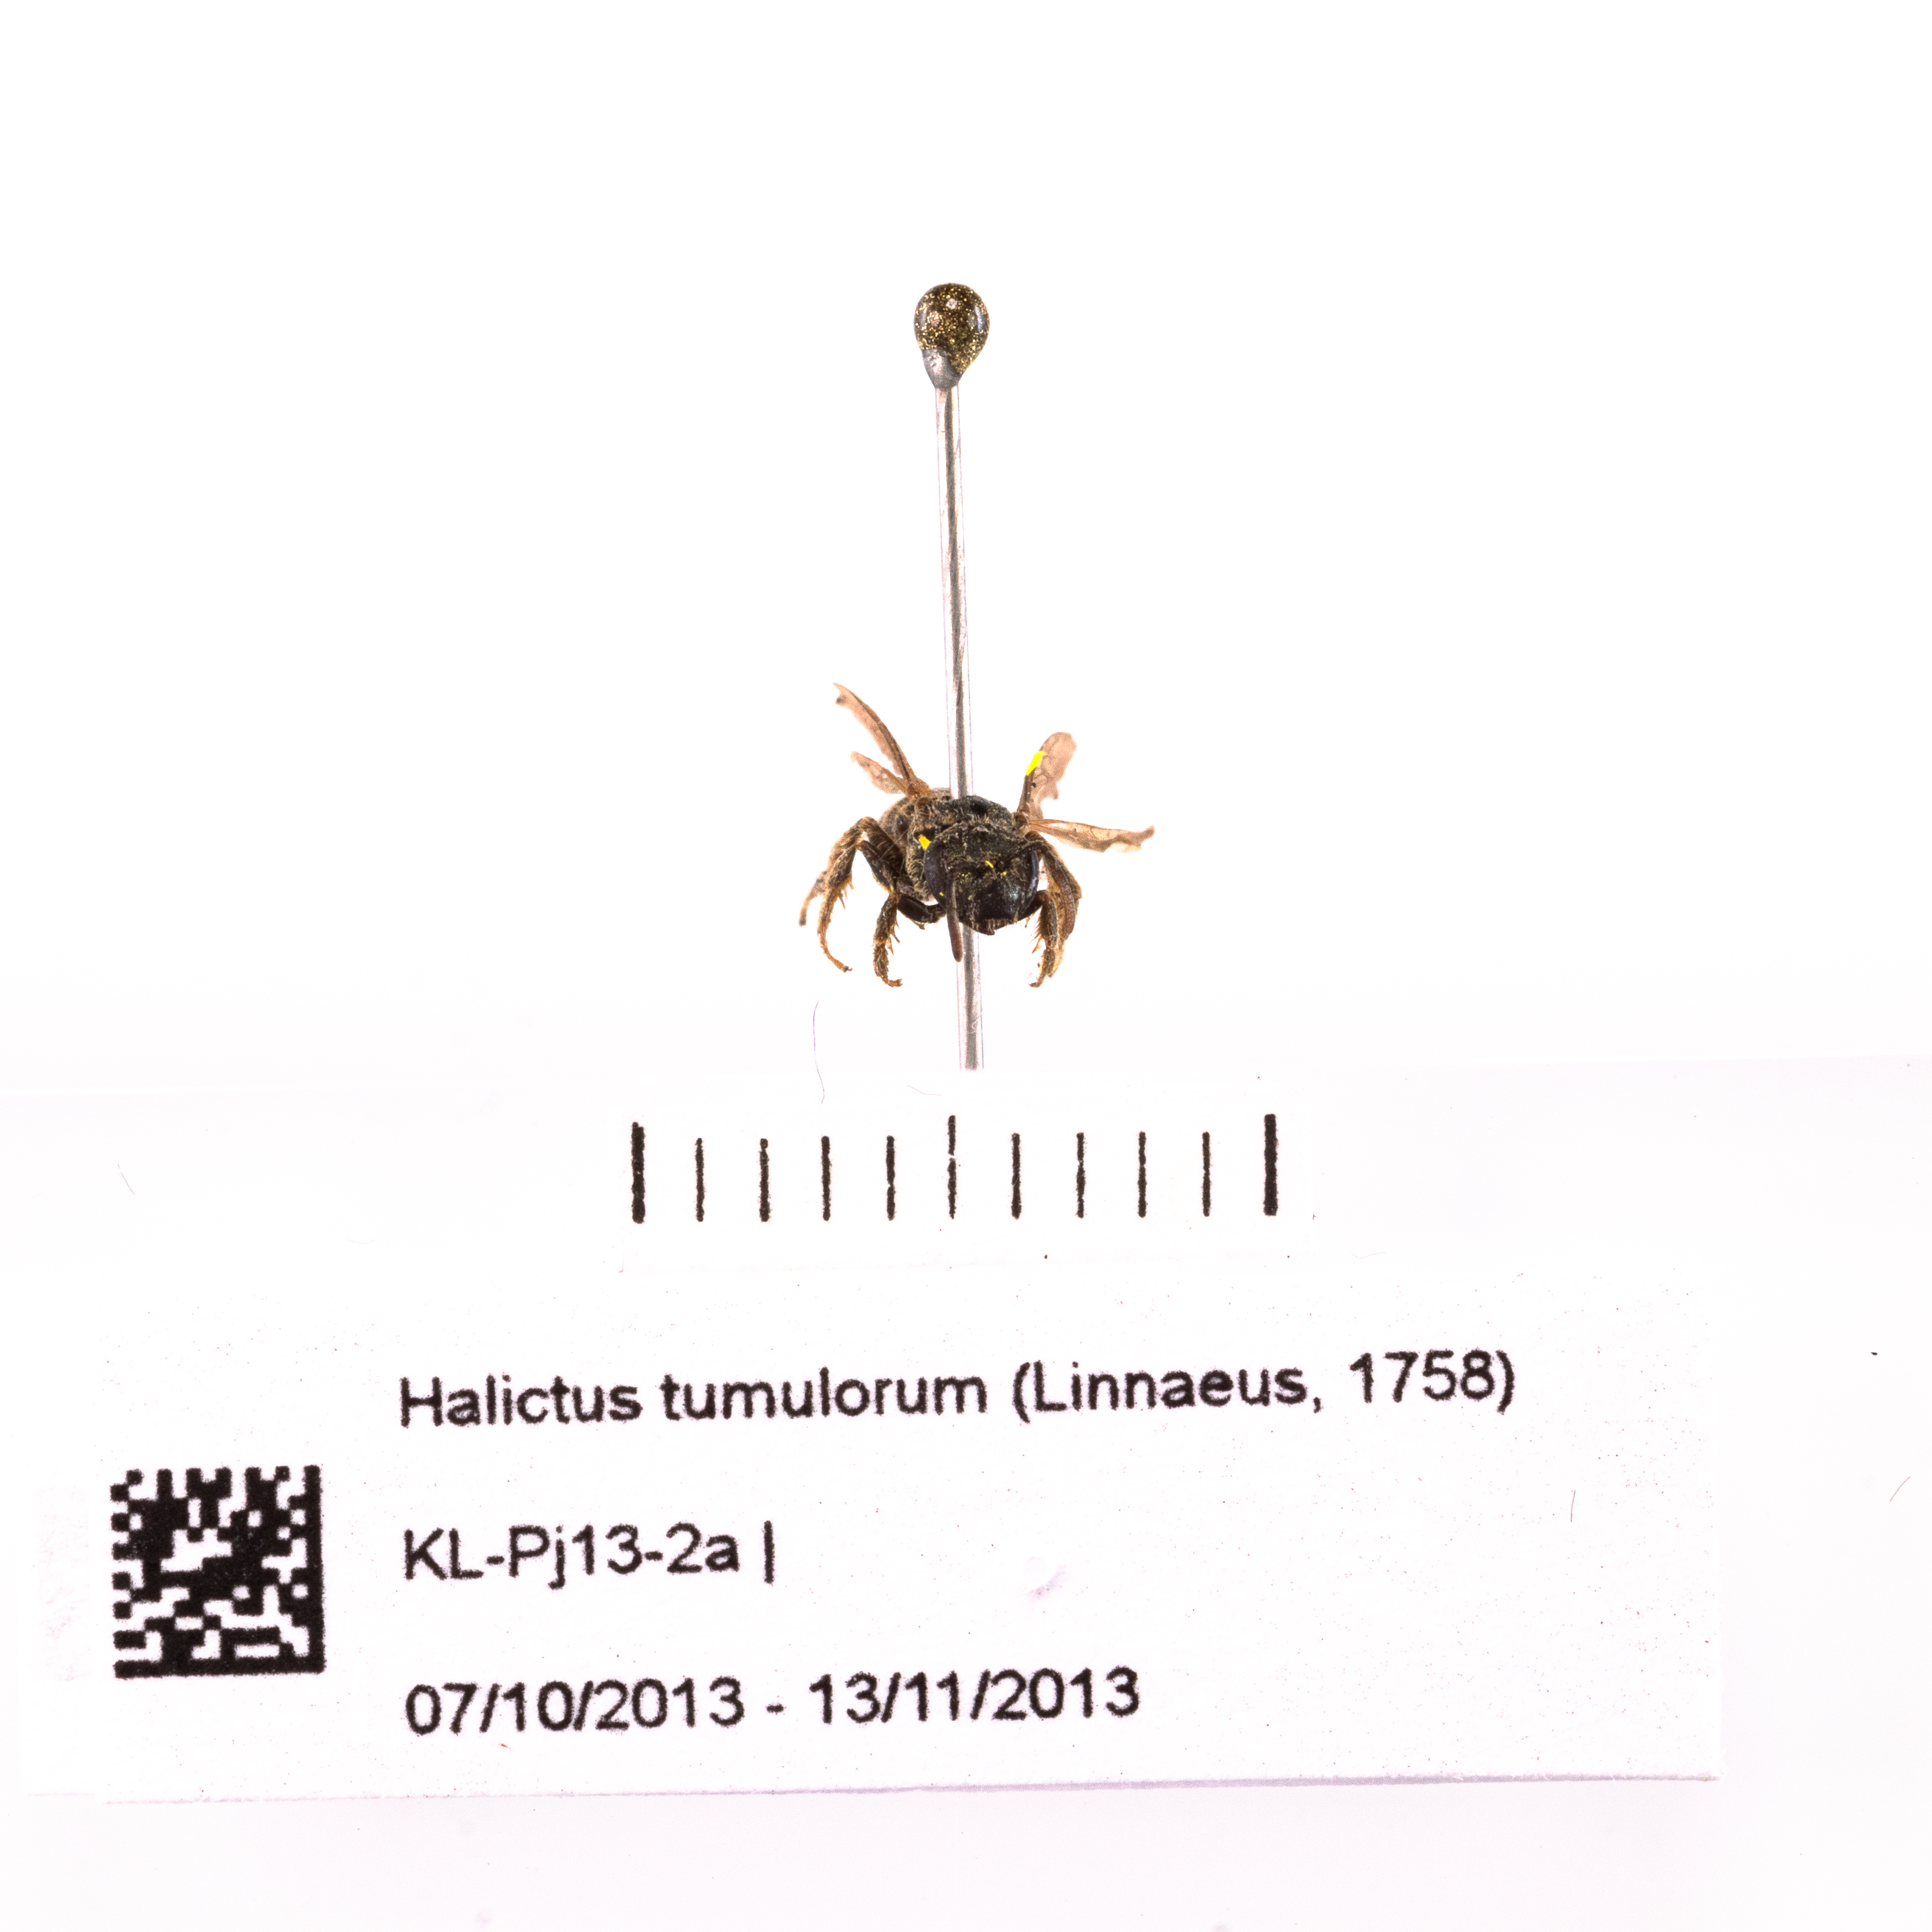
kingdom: Animalia
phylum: Arthropoda
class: Insecta
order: Hymenoptera
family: Halictidae
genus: Halictus
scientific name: Halictus tumulorum
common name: Bronze furrow bee
